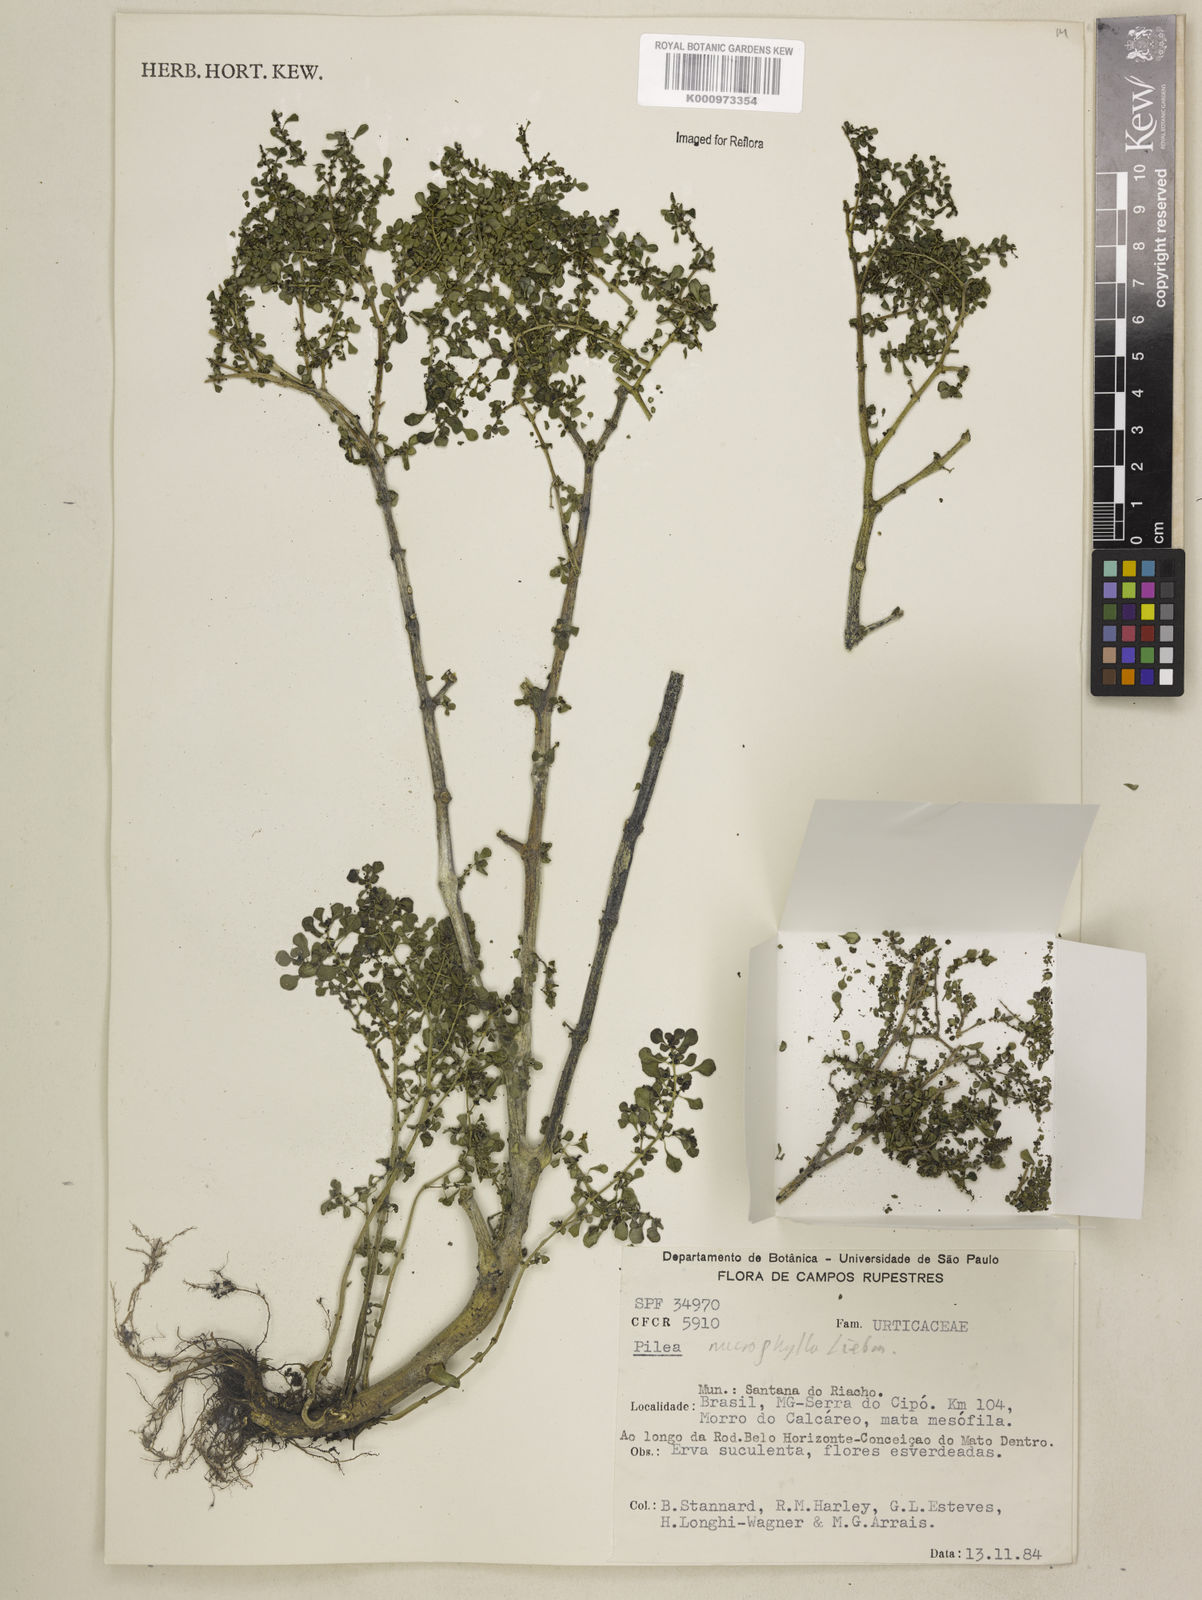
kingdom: Plantae
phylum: Tracheophyta
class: Magnoliopsida
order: Rosales
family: Urticaceae
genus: Pilea
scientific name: Pilea microphylla
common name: Artillery-plant
